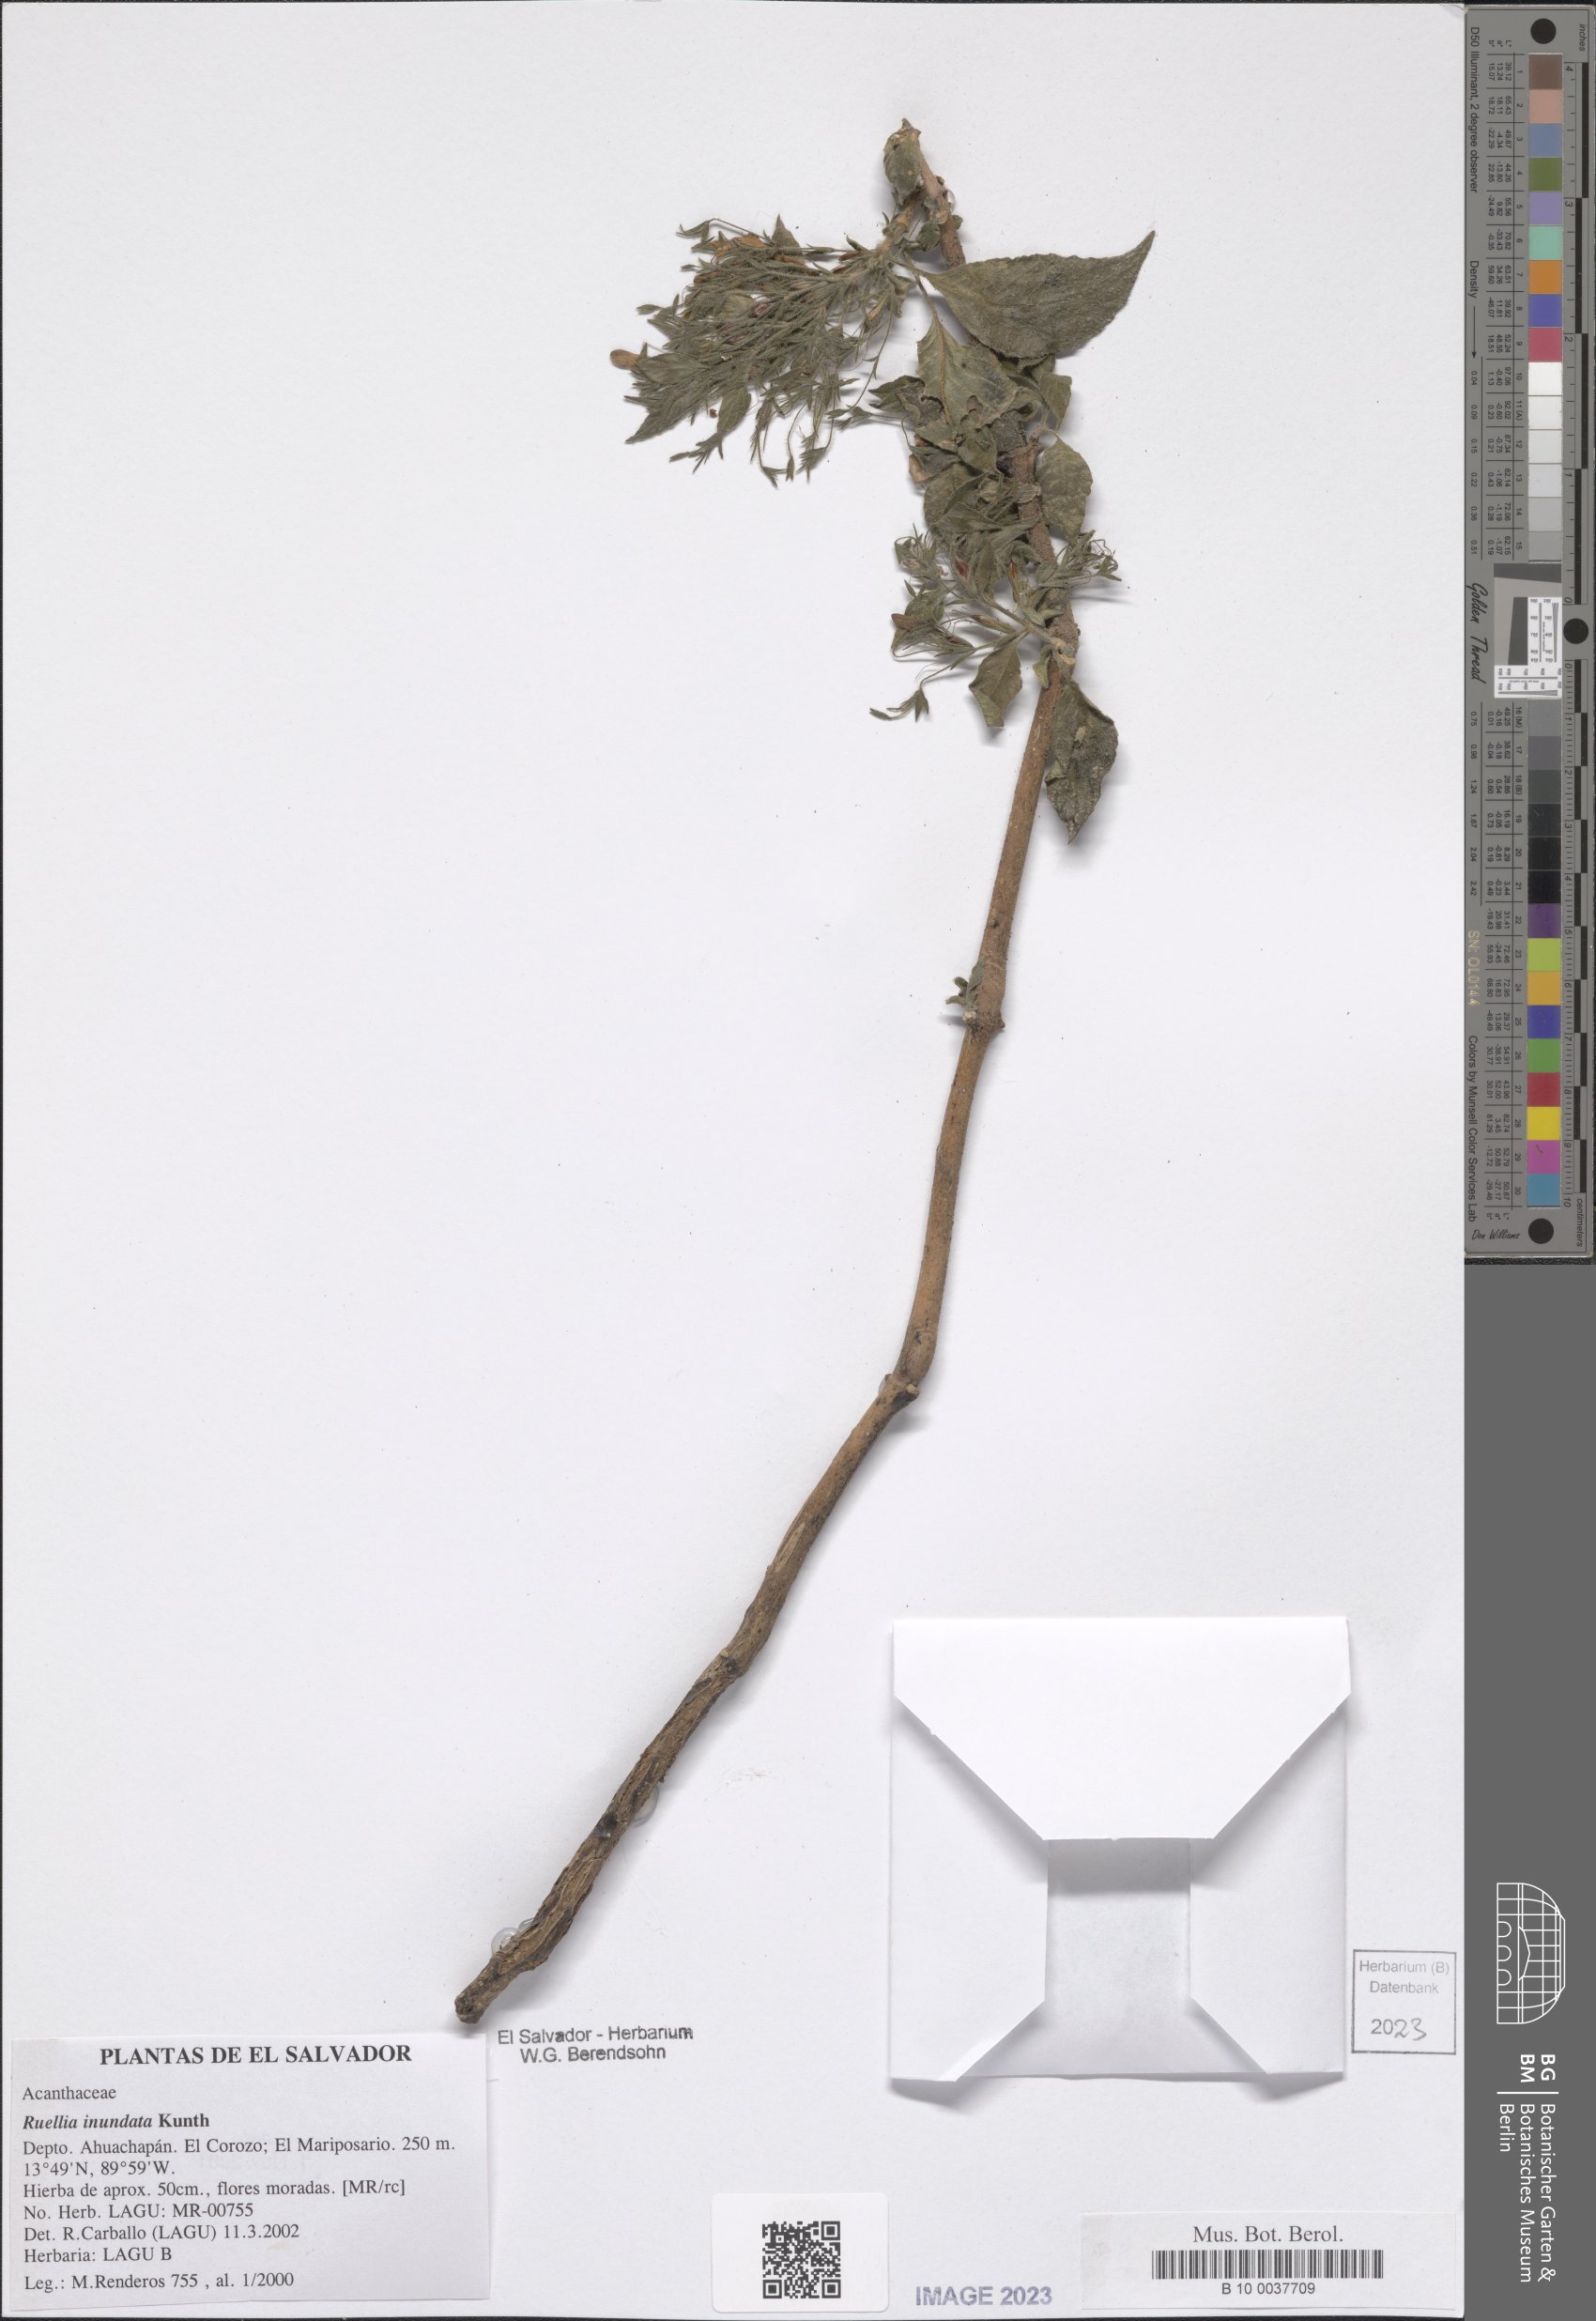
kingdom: Plantae
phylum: Tracheophyta
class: Magnoliopsida
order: Lamiales
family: Acanthaceae
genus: Ruellia
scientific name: Ruellia inundata
